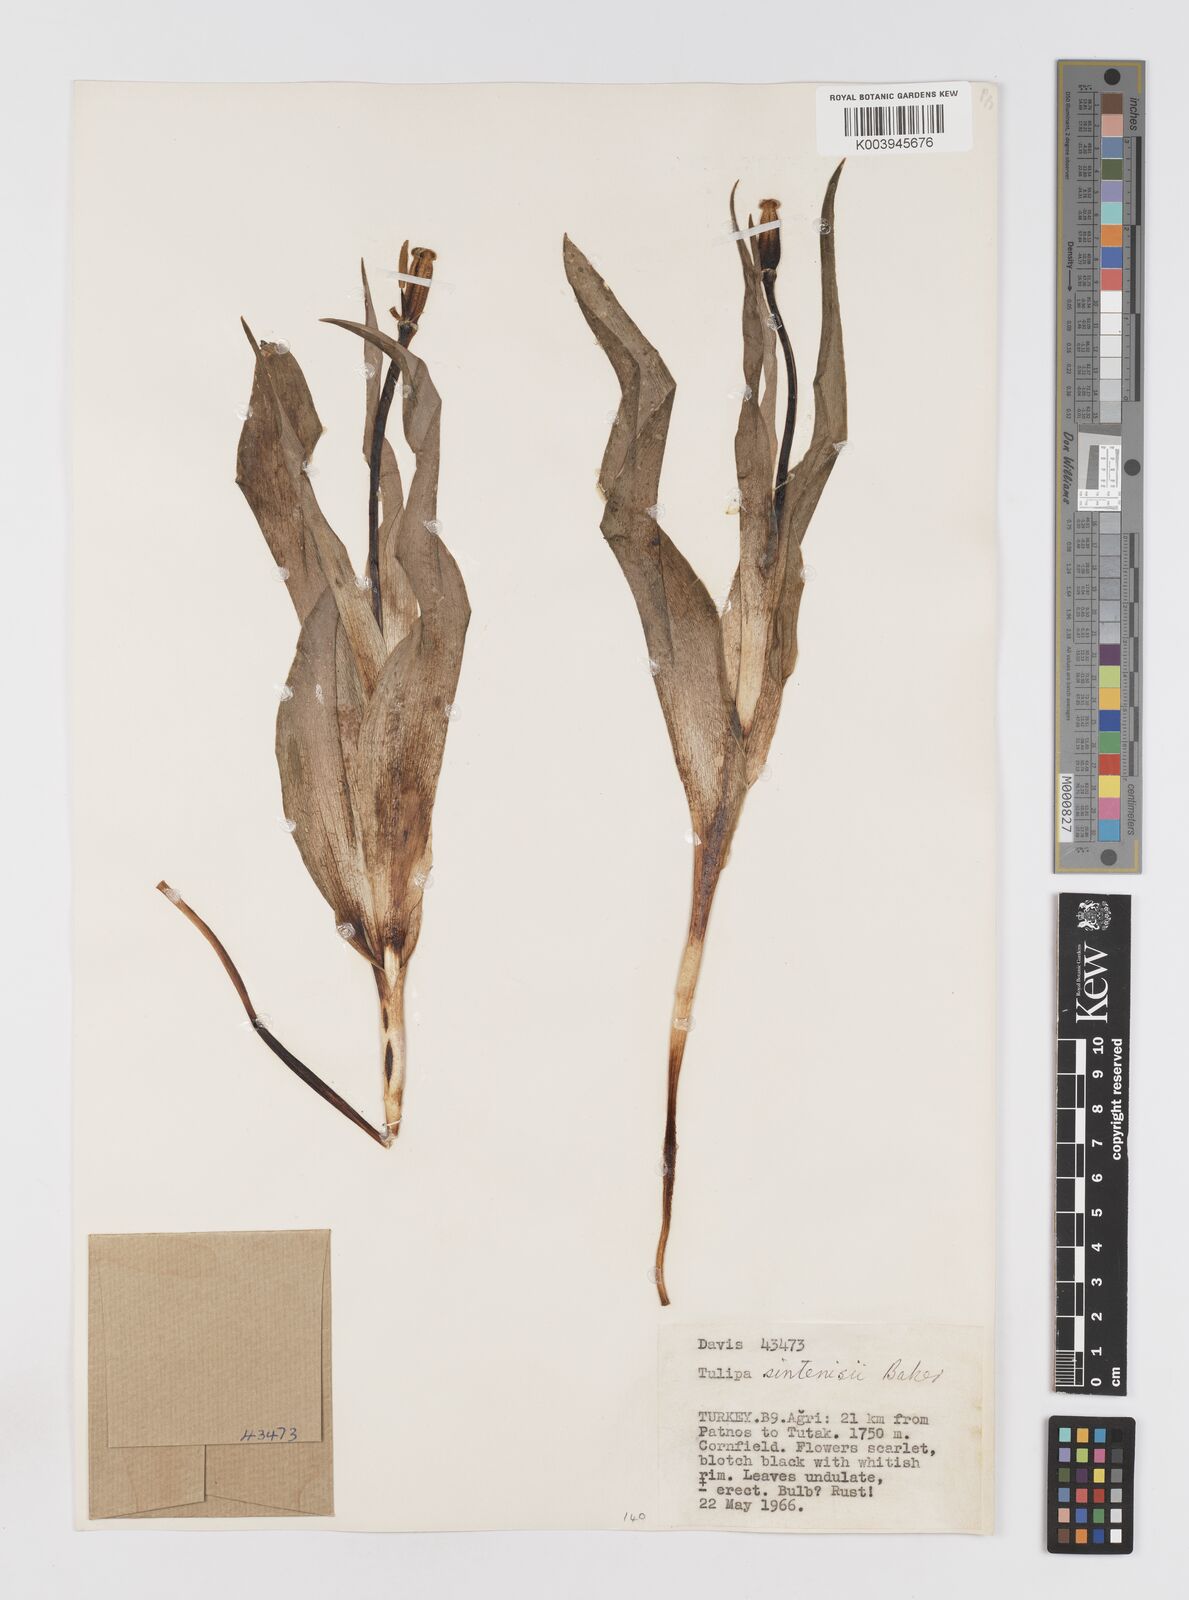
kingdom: Plantae
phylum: Tracheophyta
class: Liliopsida
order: Liliales
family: Liliaceae
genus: Tulipa
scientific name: Tulipa aleppensis
